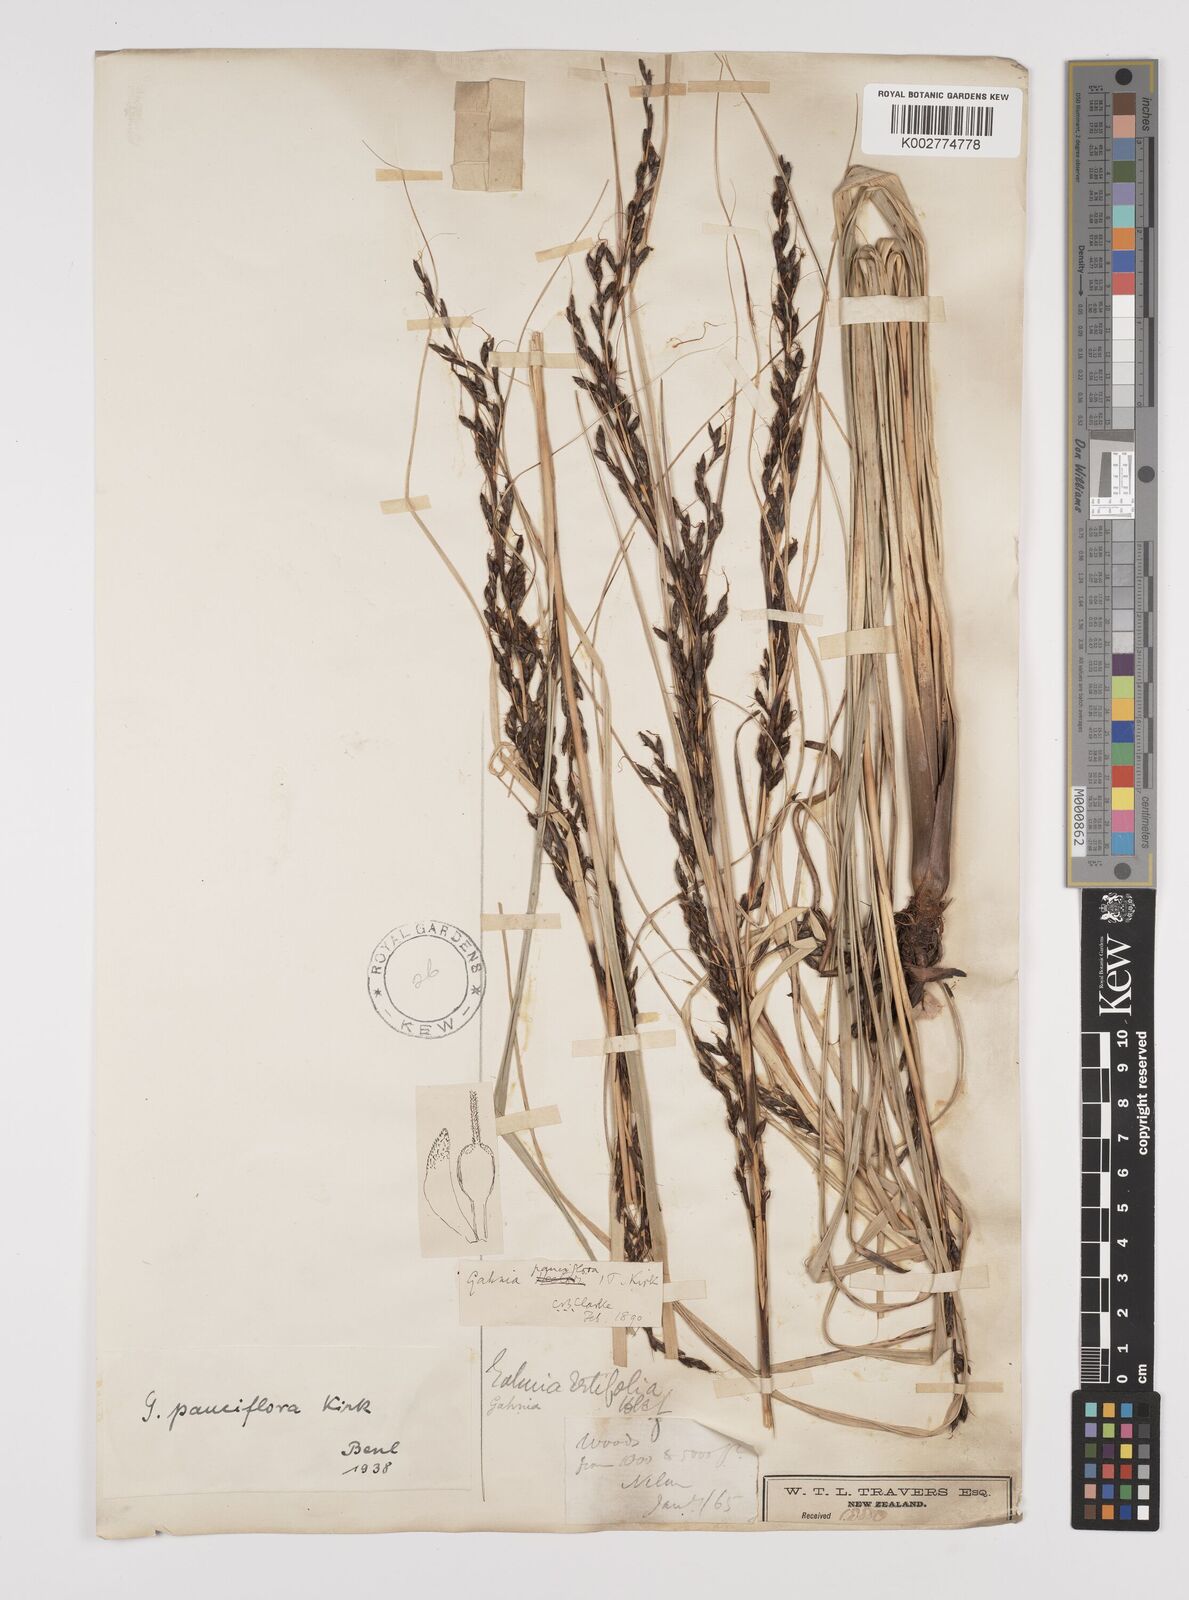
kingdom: Plantae
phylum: Tracheophyta
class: Liliopsida
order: Poales
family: Cyperaceae
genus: Gahnia
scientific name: Gahnia pauciflora
